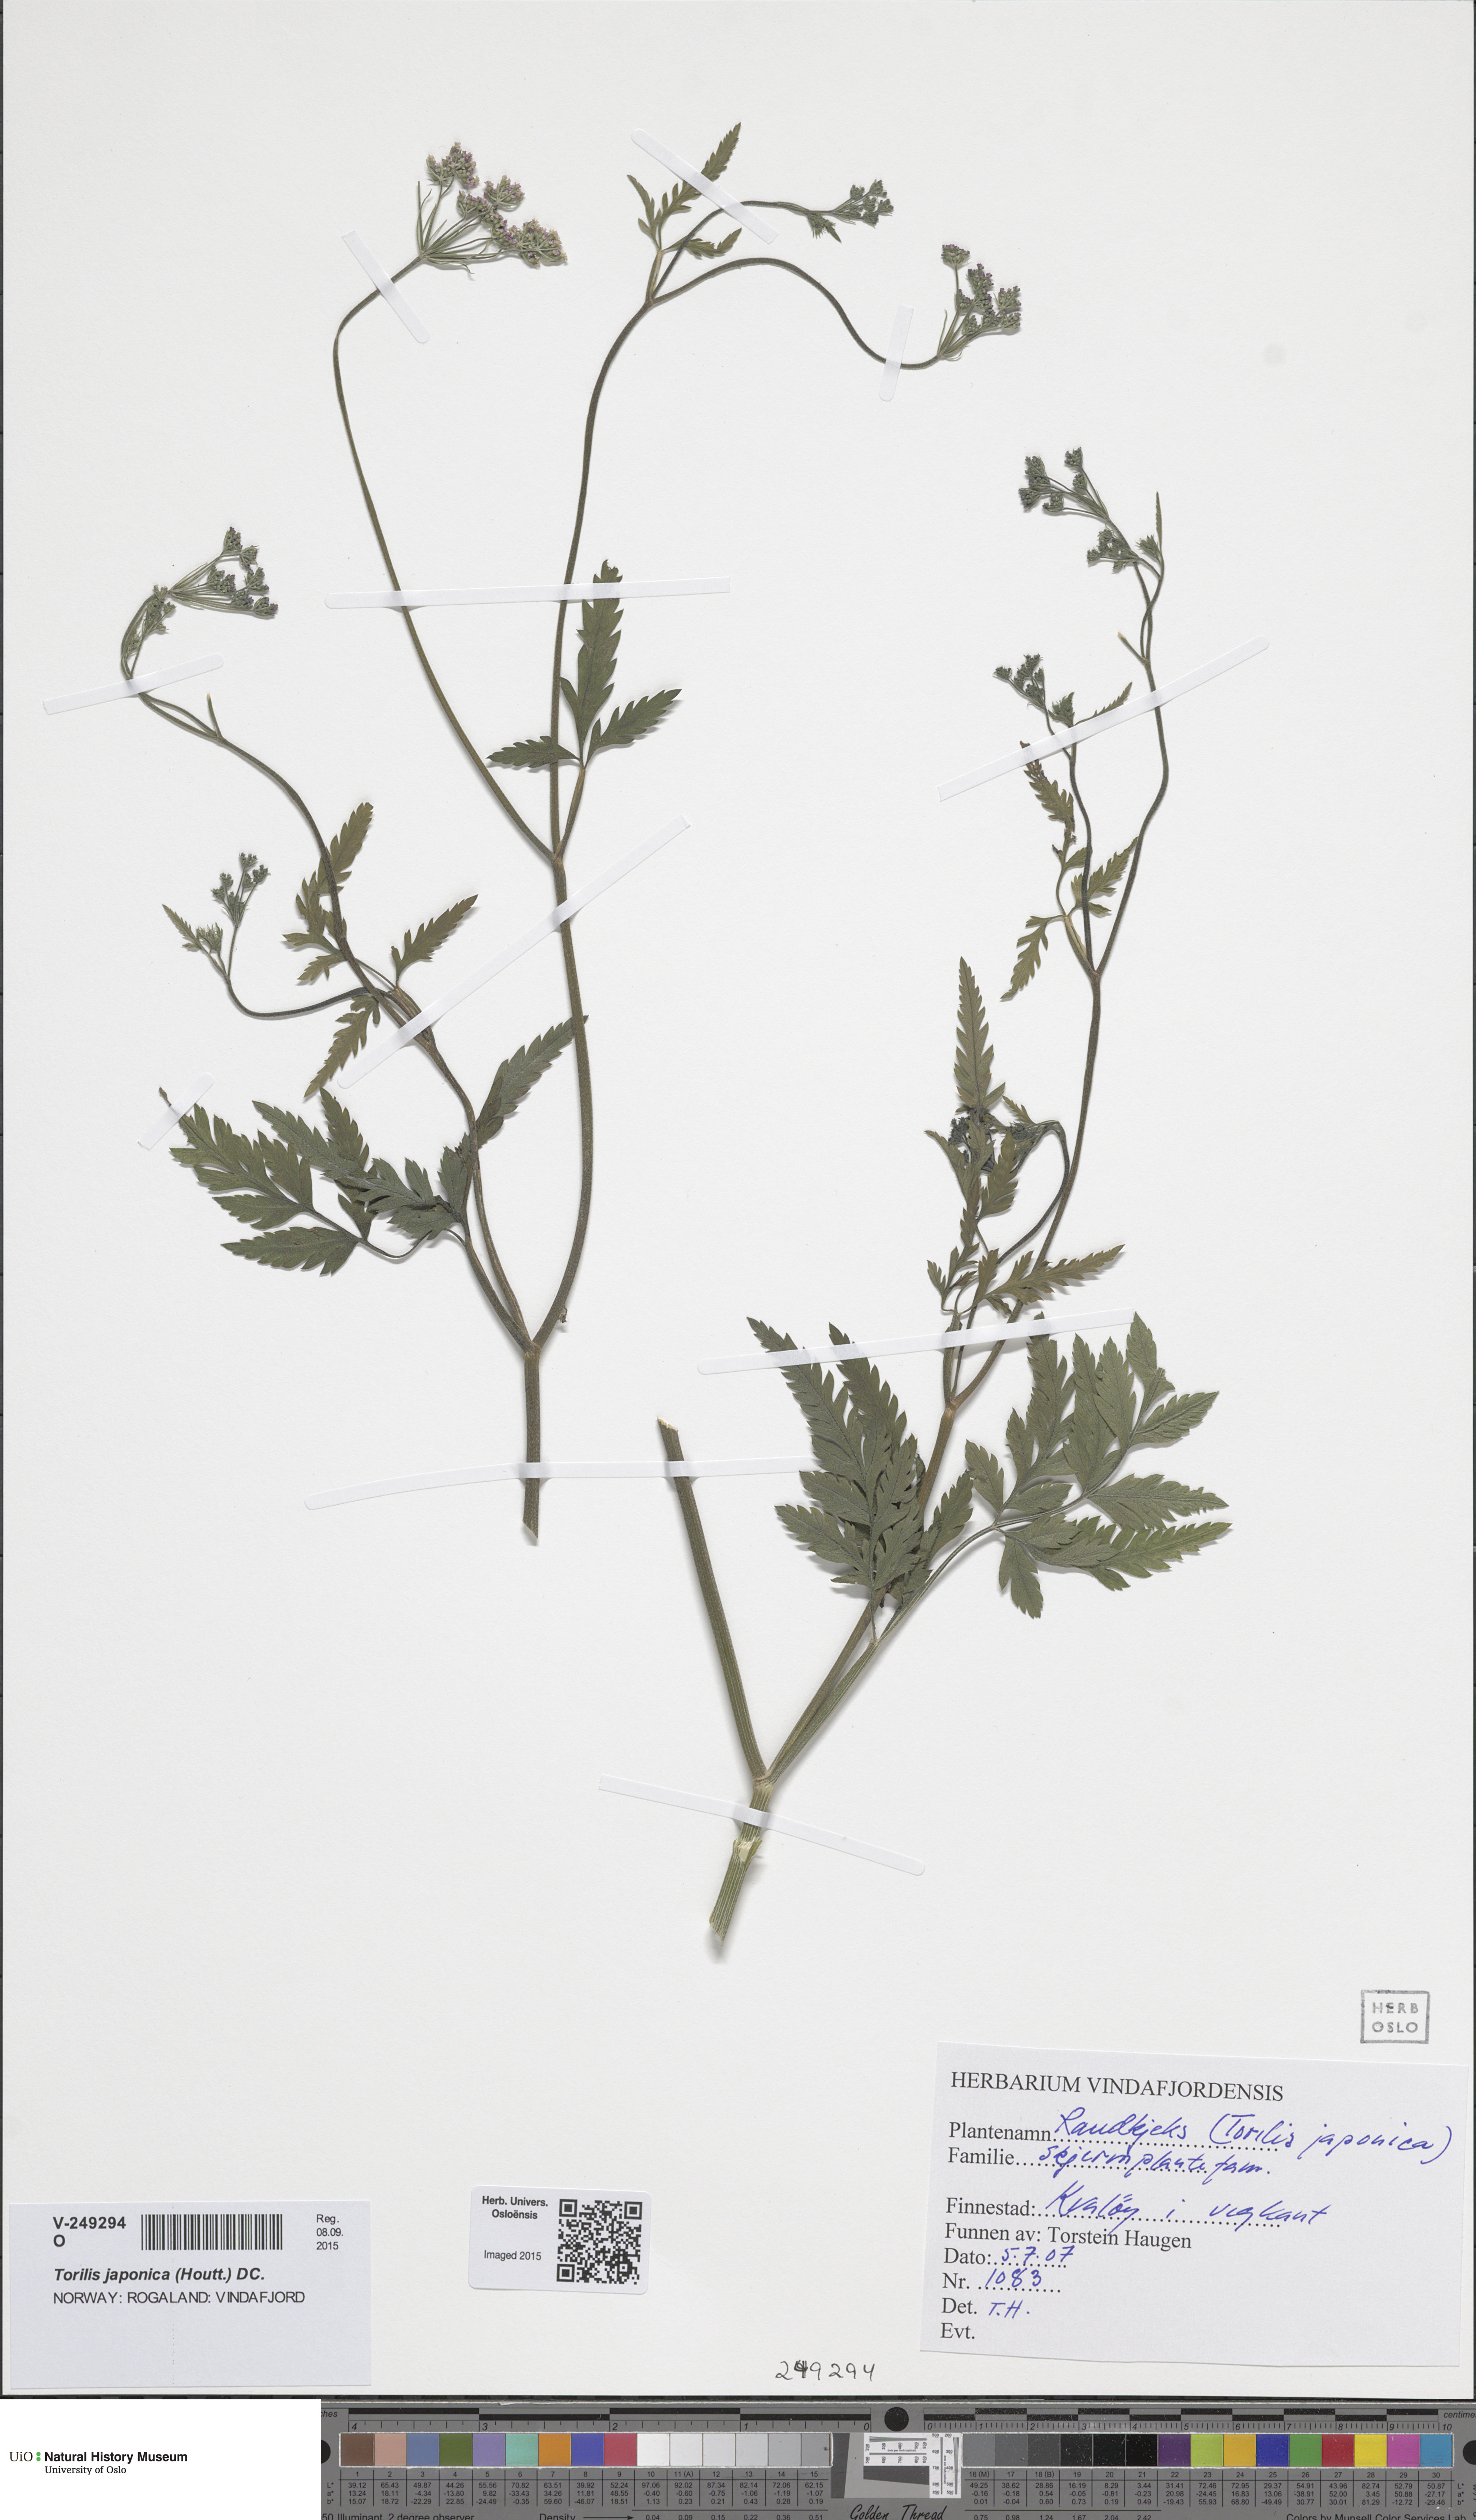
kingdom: Plantae
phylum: Tracheophyta
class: Magnoliopsida
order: Apiales
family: Apiaceae
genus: Torilis
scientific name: Torilis japonica
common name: Upright hedge-parsley
